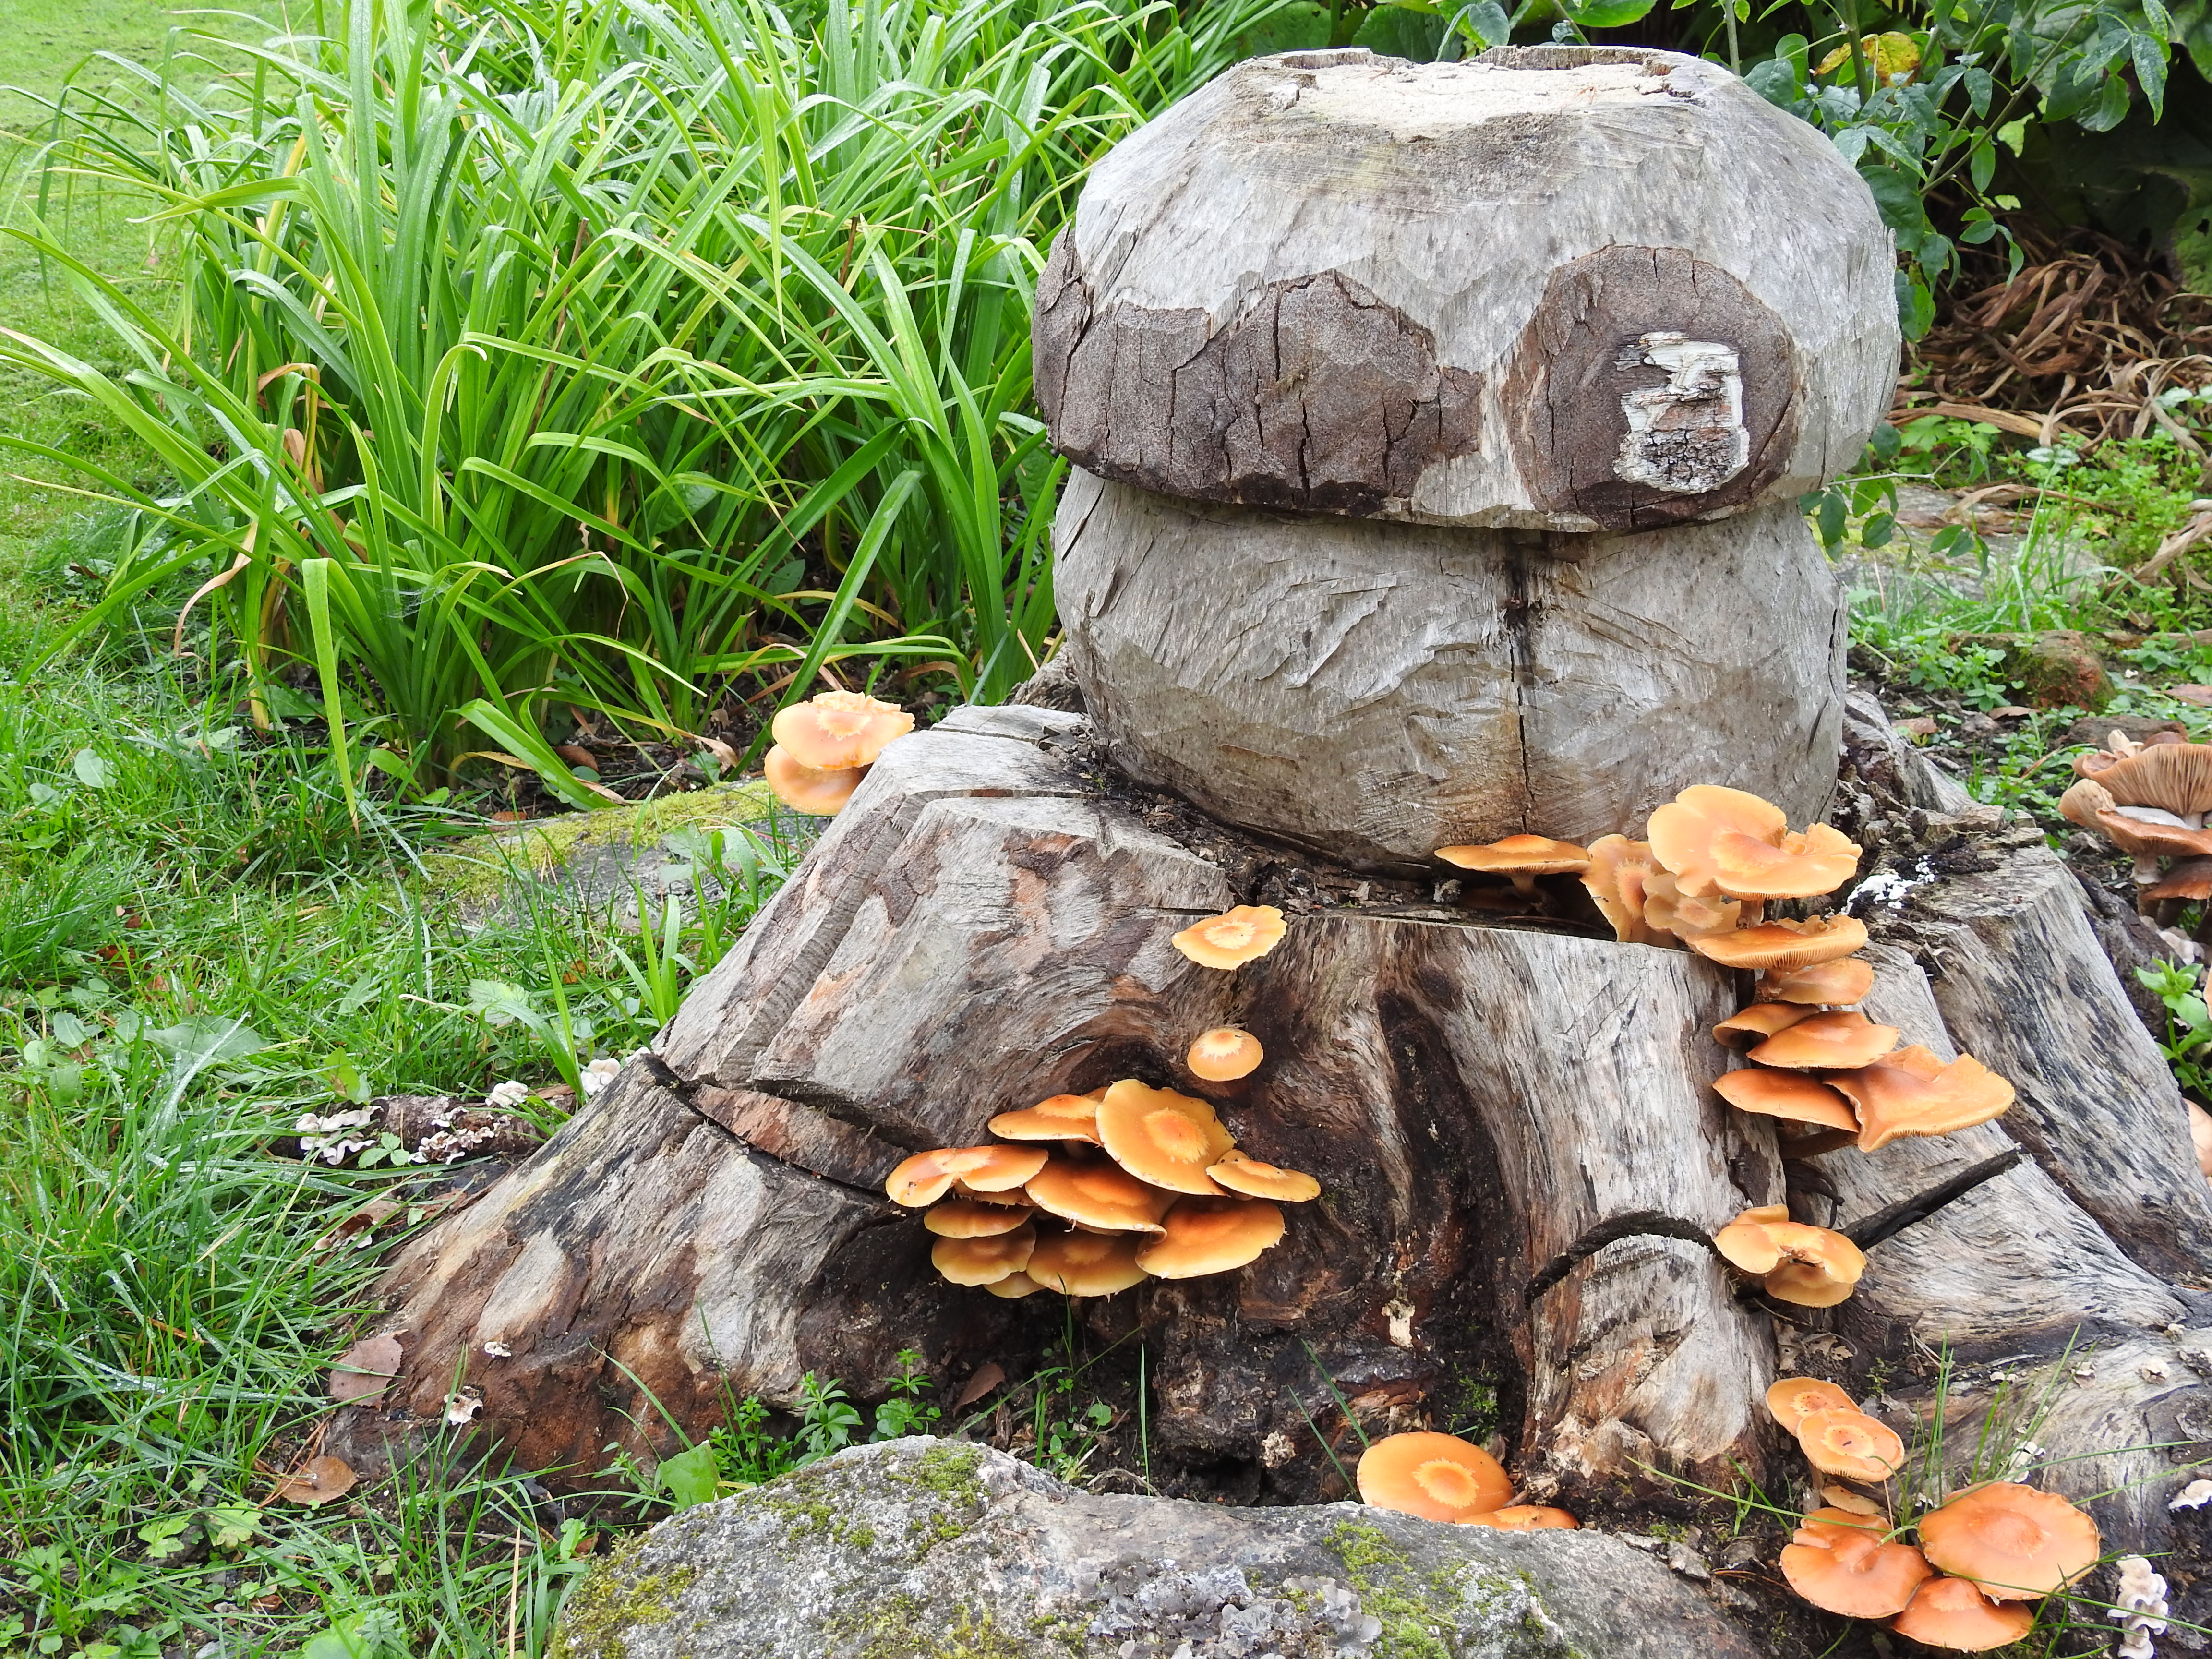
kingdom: Fungi
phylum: Basidiomycota
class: Agaricomycetes
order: Agaricales
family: Strophariaceae
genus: Kuehneromyces
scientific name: Kuehneromyces mutabilis
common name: Sheathed woodtuft
